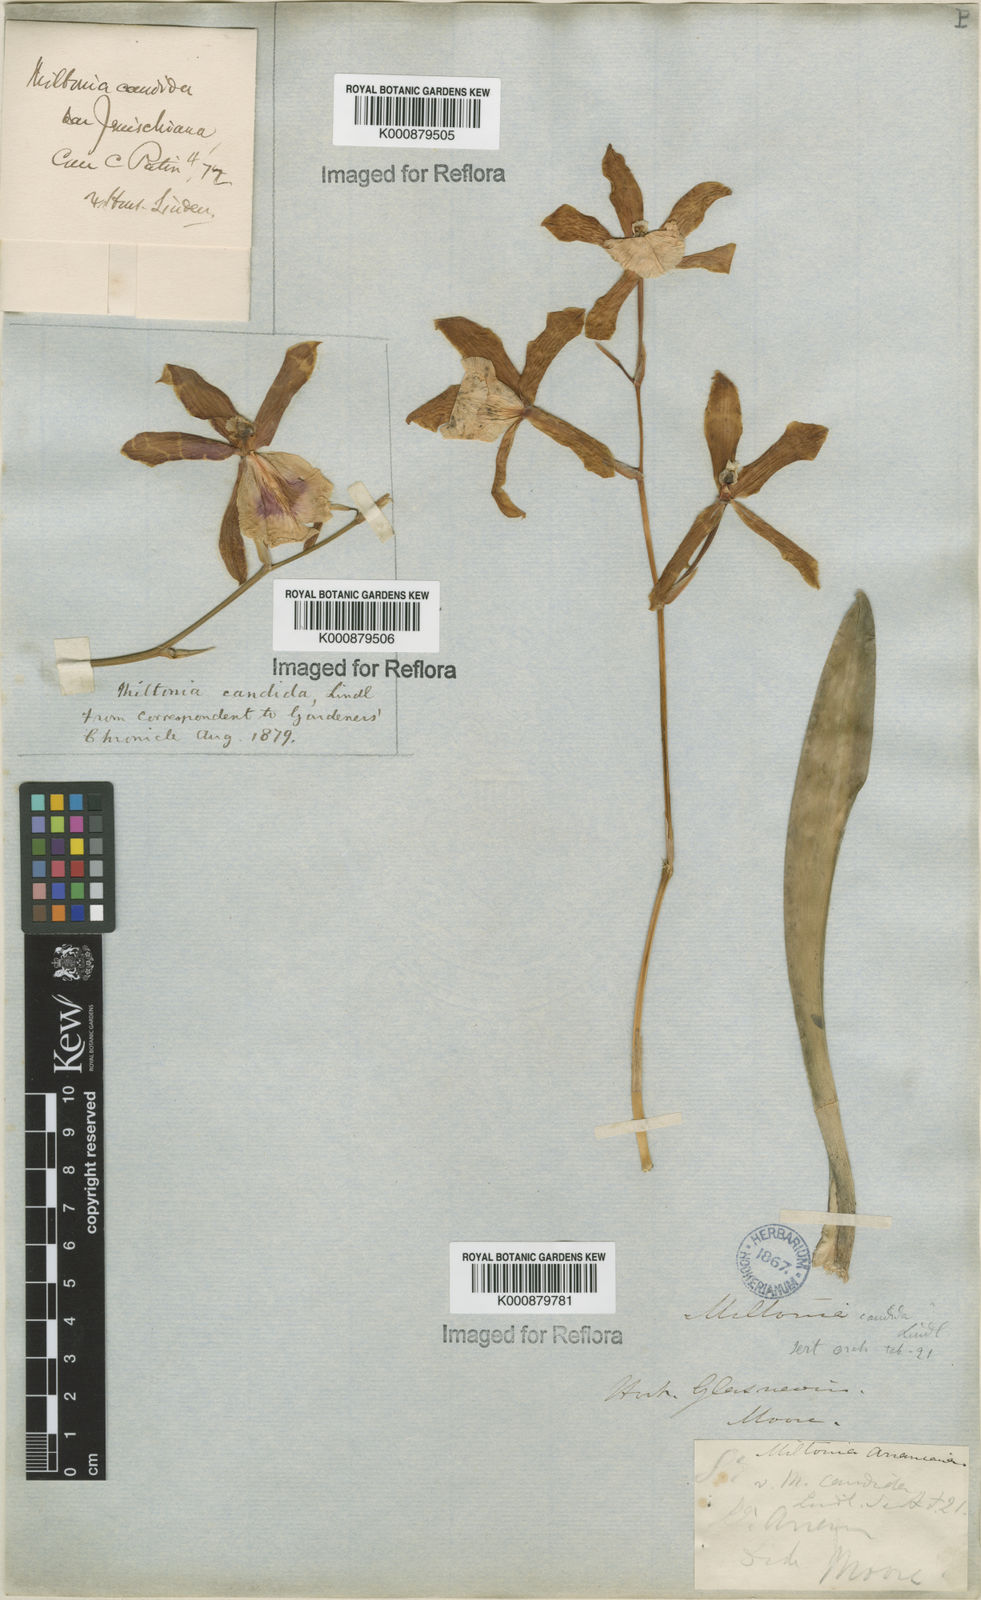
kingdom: Plantae
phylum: Tracheophyta
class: Liliopsida
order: Asparagales
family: Orchidaceae
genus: Miltonia
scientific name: Miltonia candida
